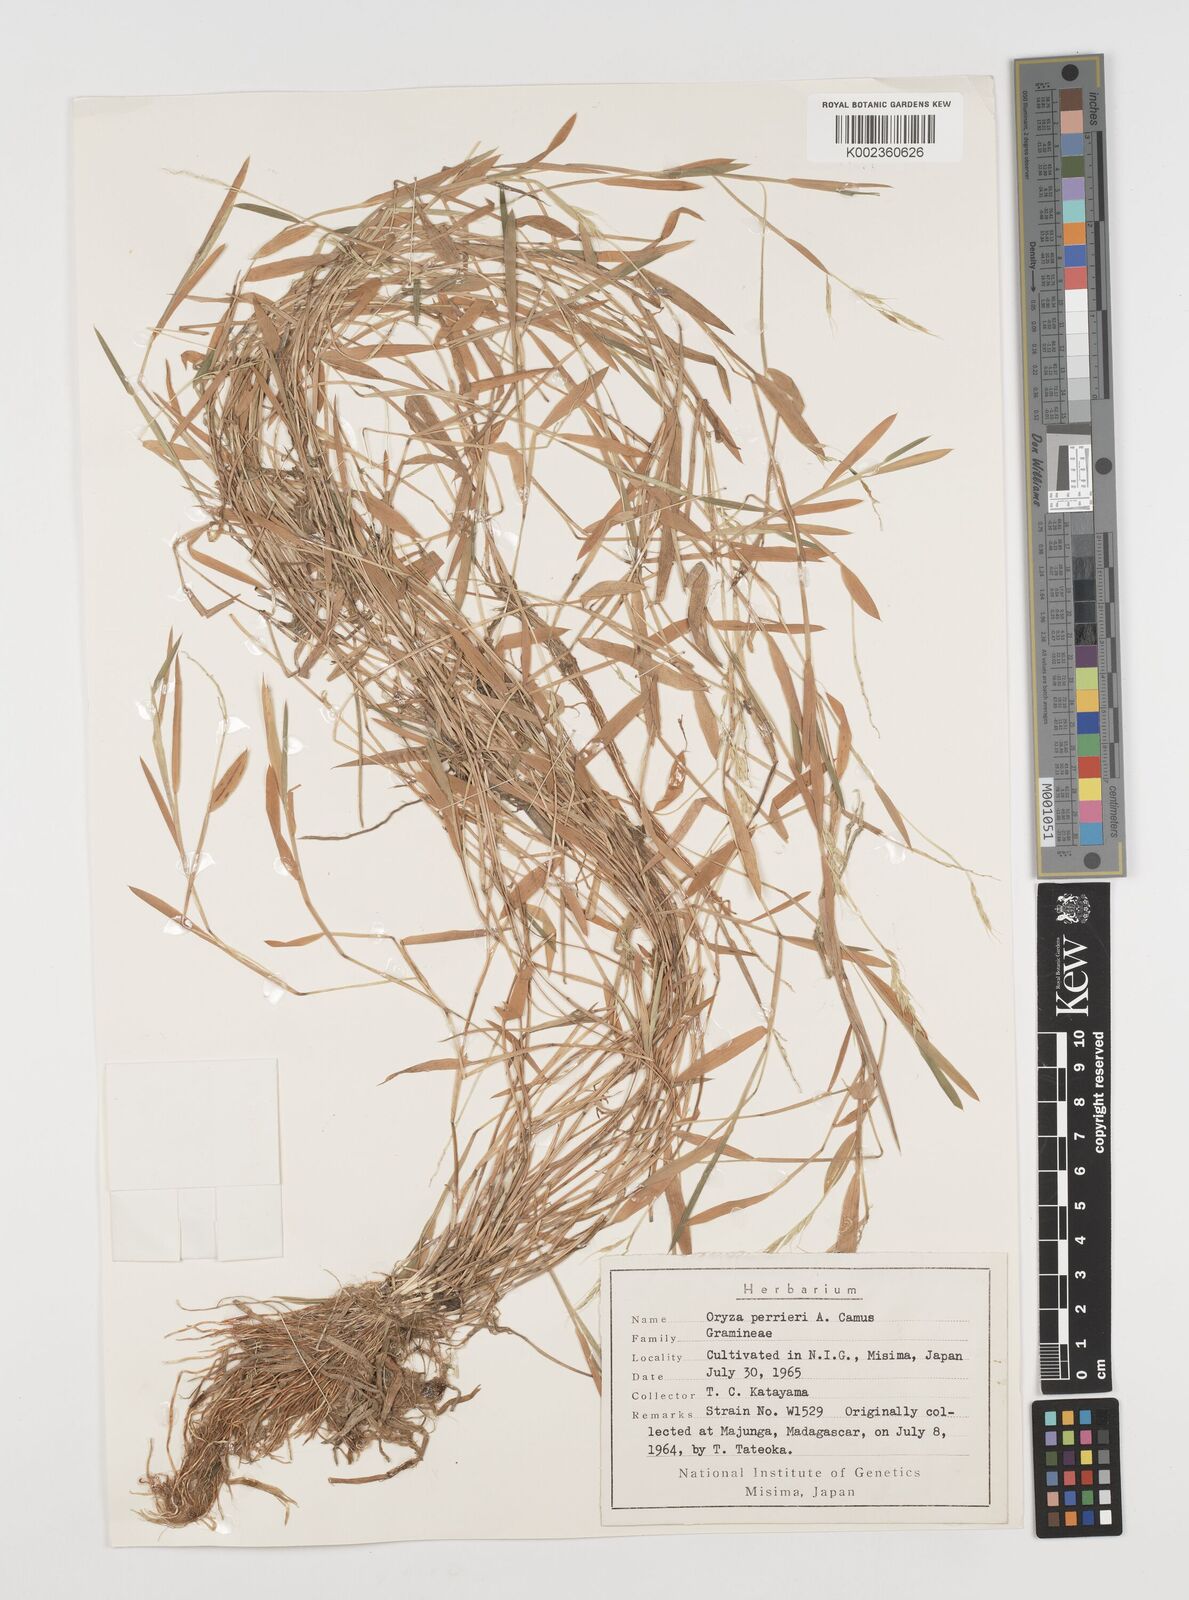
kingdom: Plantae
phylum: Tracheophyta
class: Liliopsida
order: Poales
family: Poaceae
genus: Leersia
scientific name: Leersia perrieri
